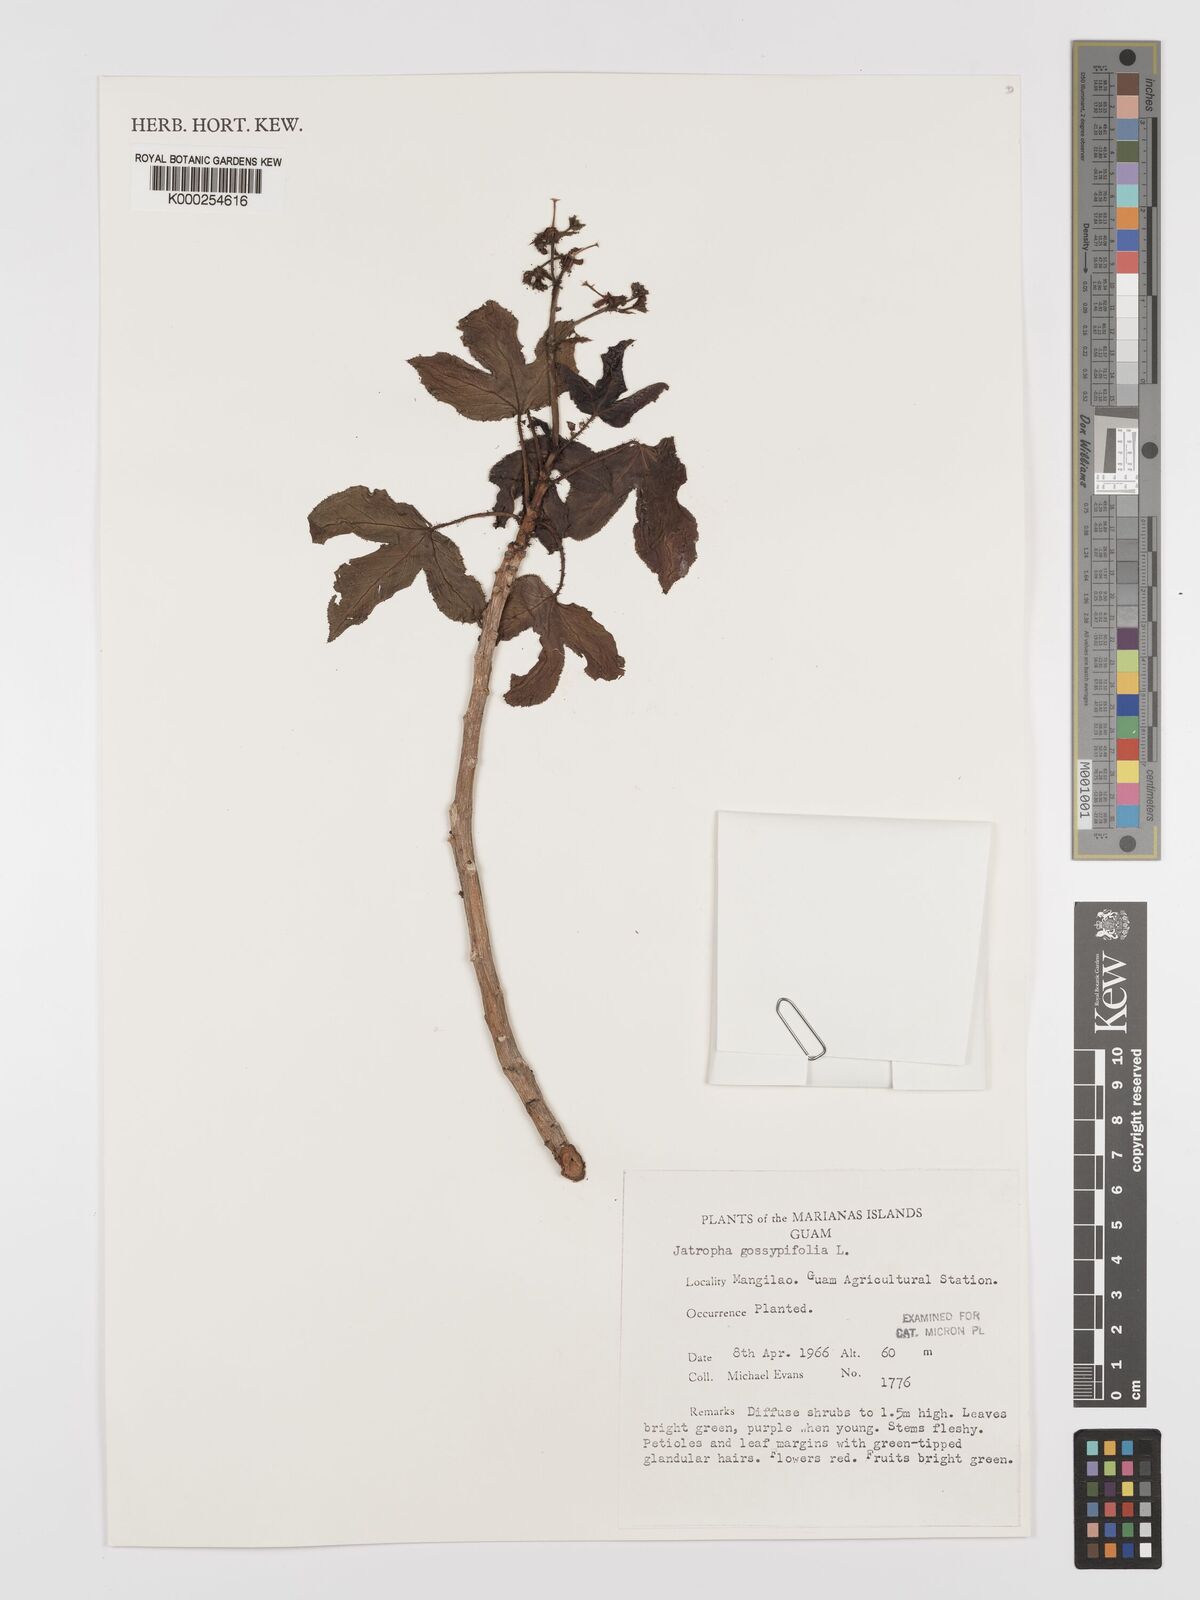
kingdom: Plantae
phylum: Tracheophyta
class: Magnoliopsida
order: Malpighiales
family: Euphorbiaceae
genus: Jatropha
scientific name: Jatropha gossypiifolia
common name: Bellyache bush
